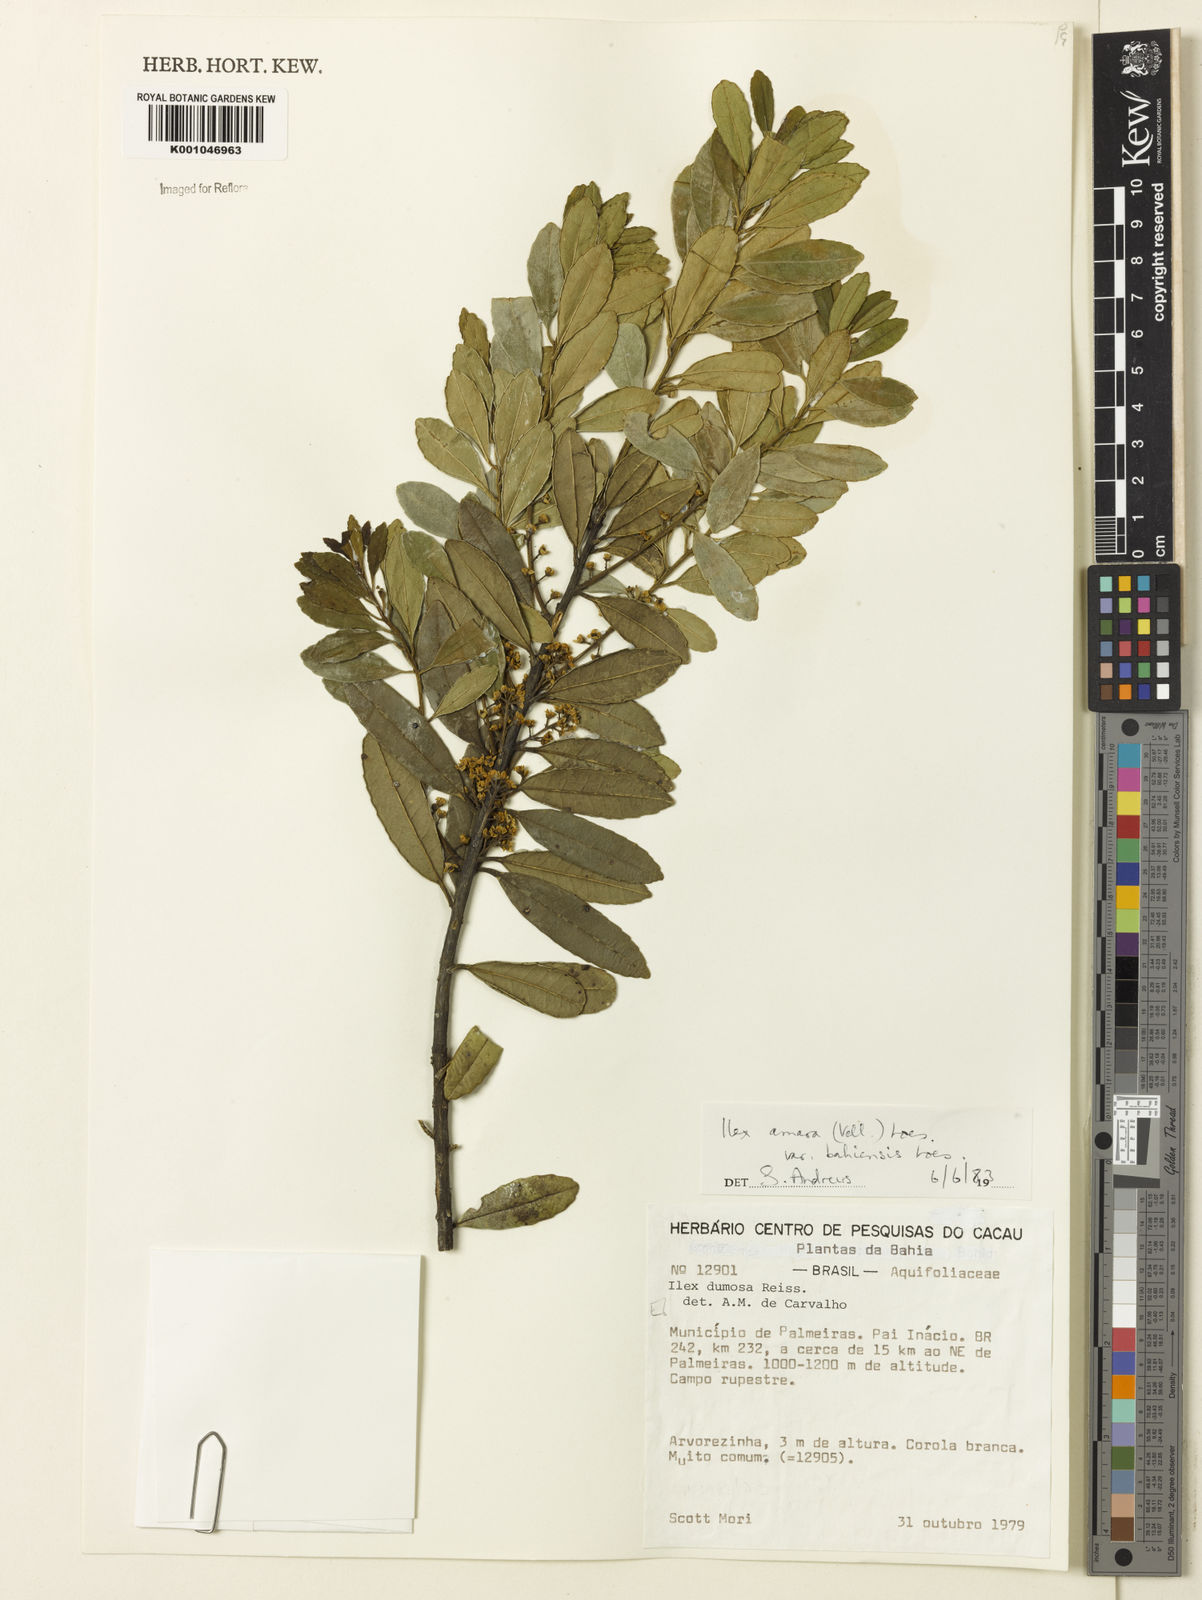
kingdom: Plantae
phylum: Tracheophyta
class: Magnoliopsida
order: Aquifoliales
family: Aquifoliaceae
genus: Ilex
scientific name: Ilex dumosa
